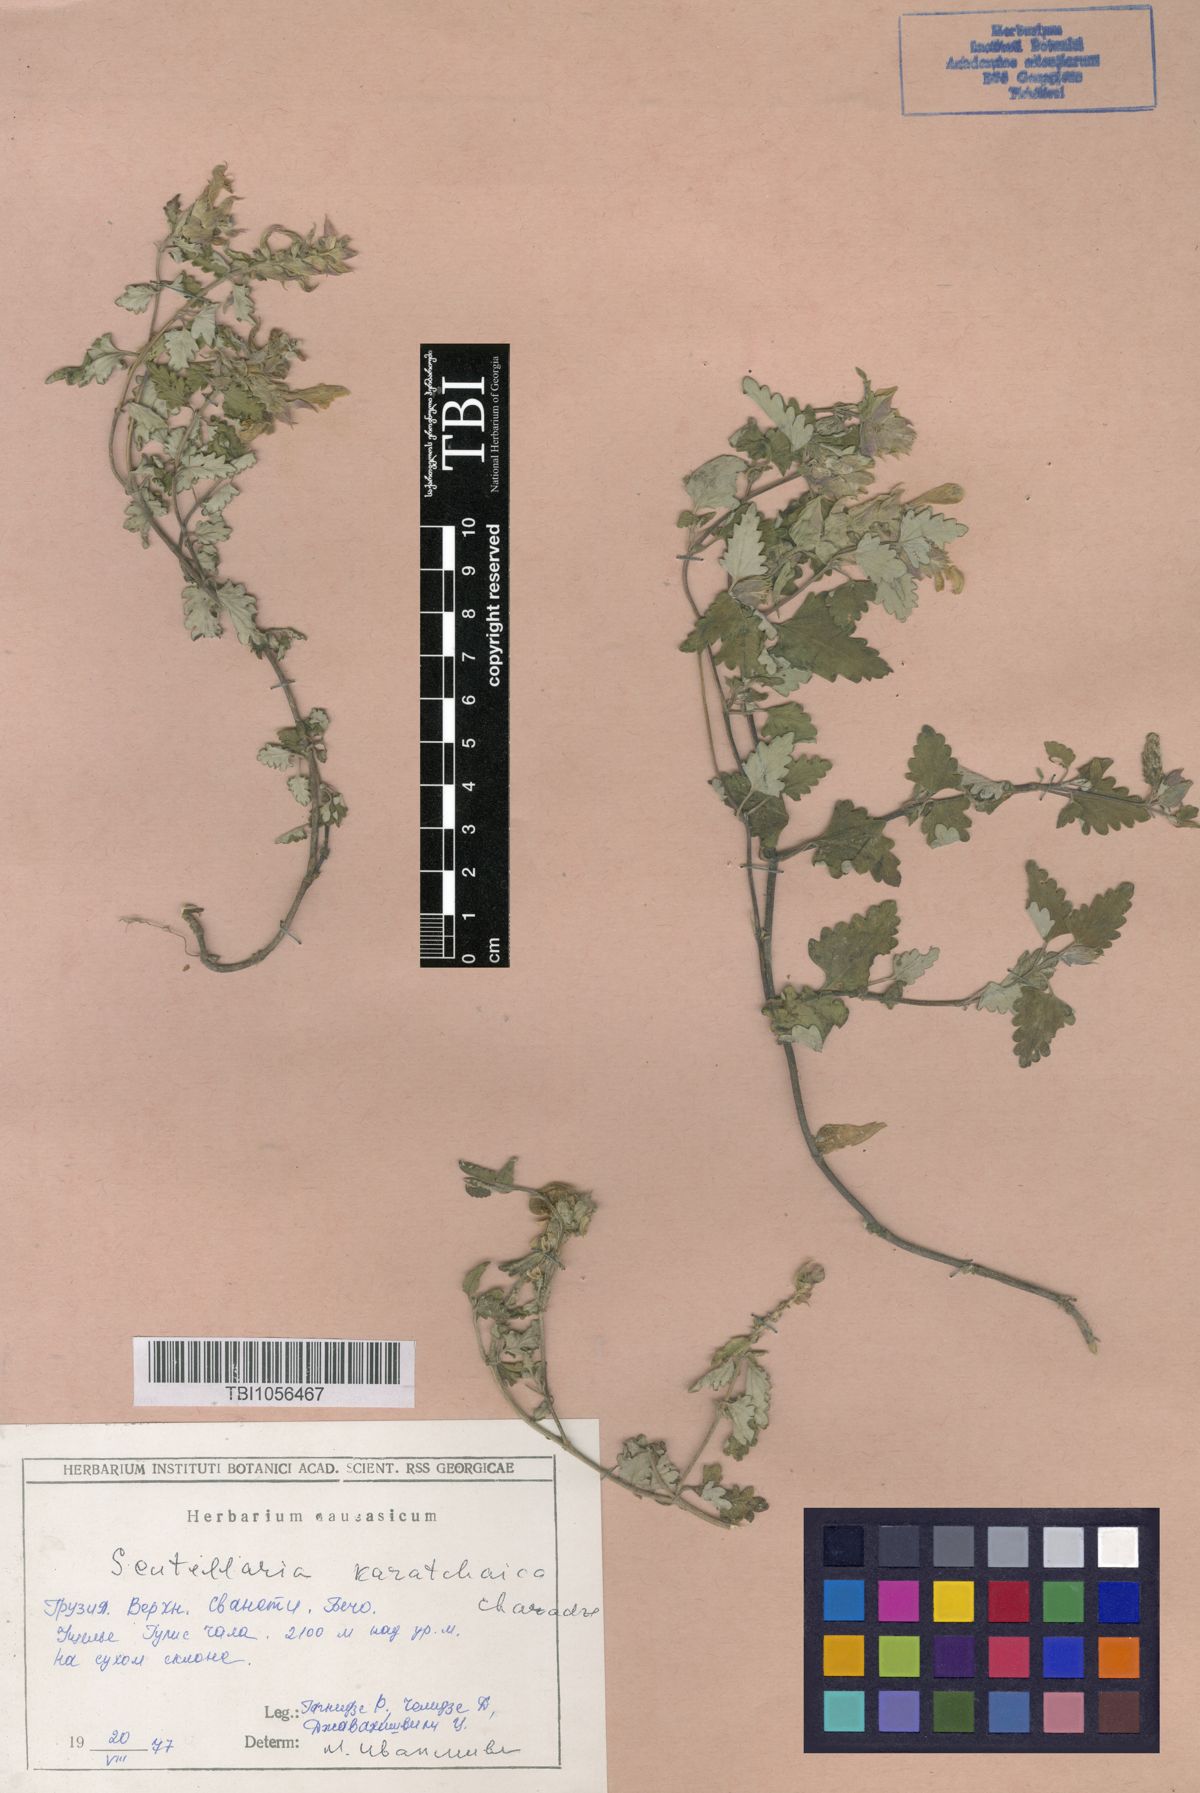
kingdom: Plantae
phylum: Tracheophyta
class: Magnoliopsida
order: Lamiales
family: Lamiaceae
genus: Scutellaria
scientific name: Scutellaria orientalis
